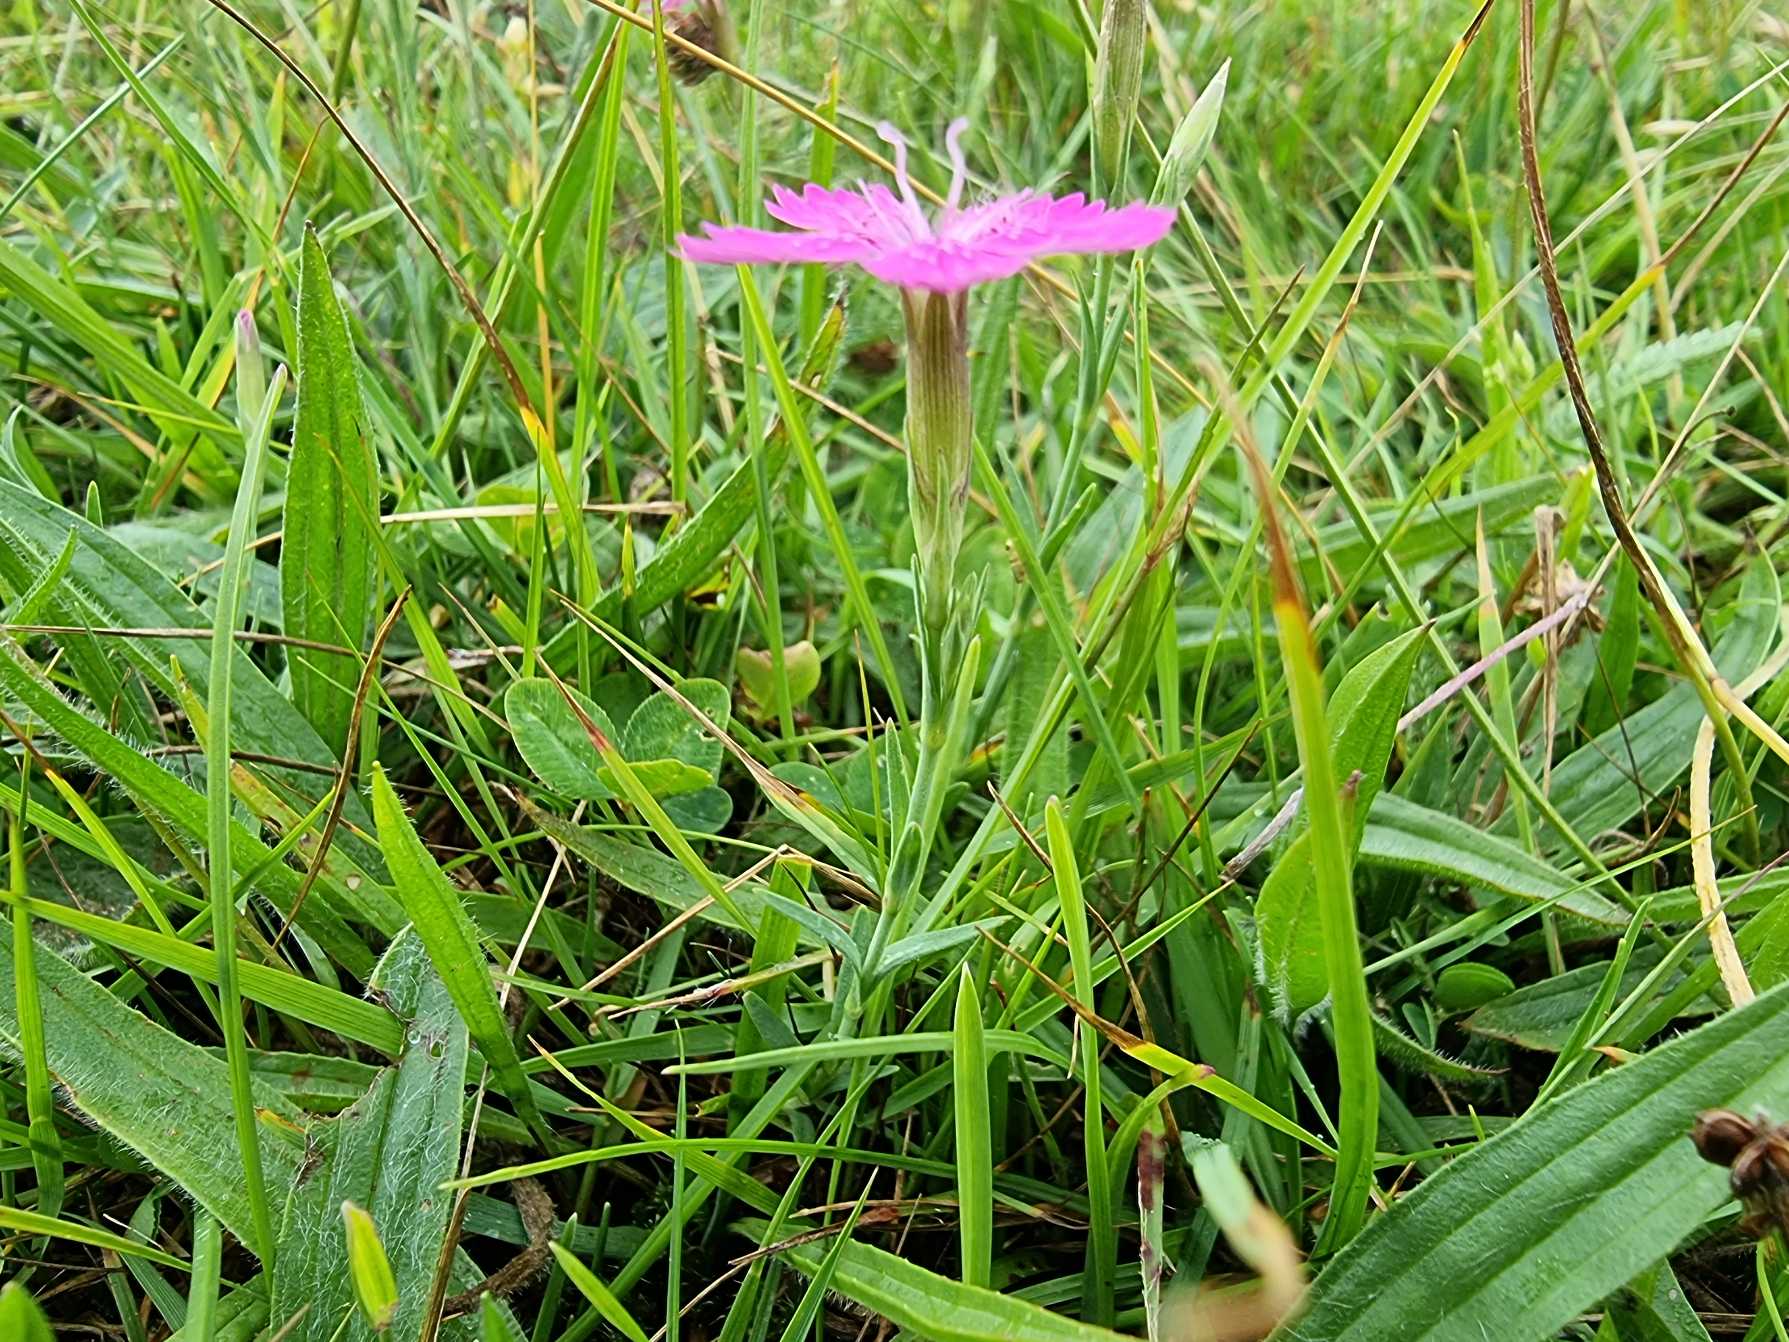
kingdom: Plantae
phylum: Tracheophyta
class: Magnoliopsida
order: Caryophyllales
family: Caryophyllaceae
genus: Dianthus
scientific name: Dianthus deltoides
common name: Bakke-nellike
